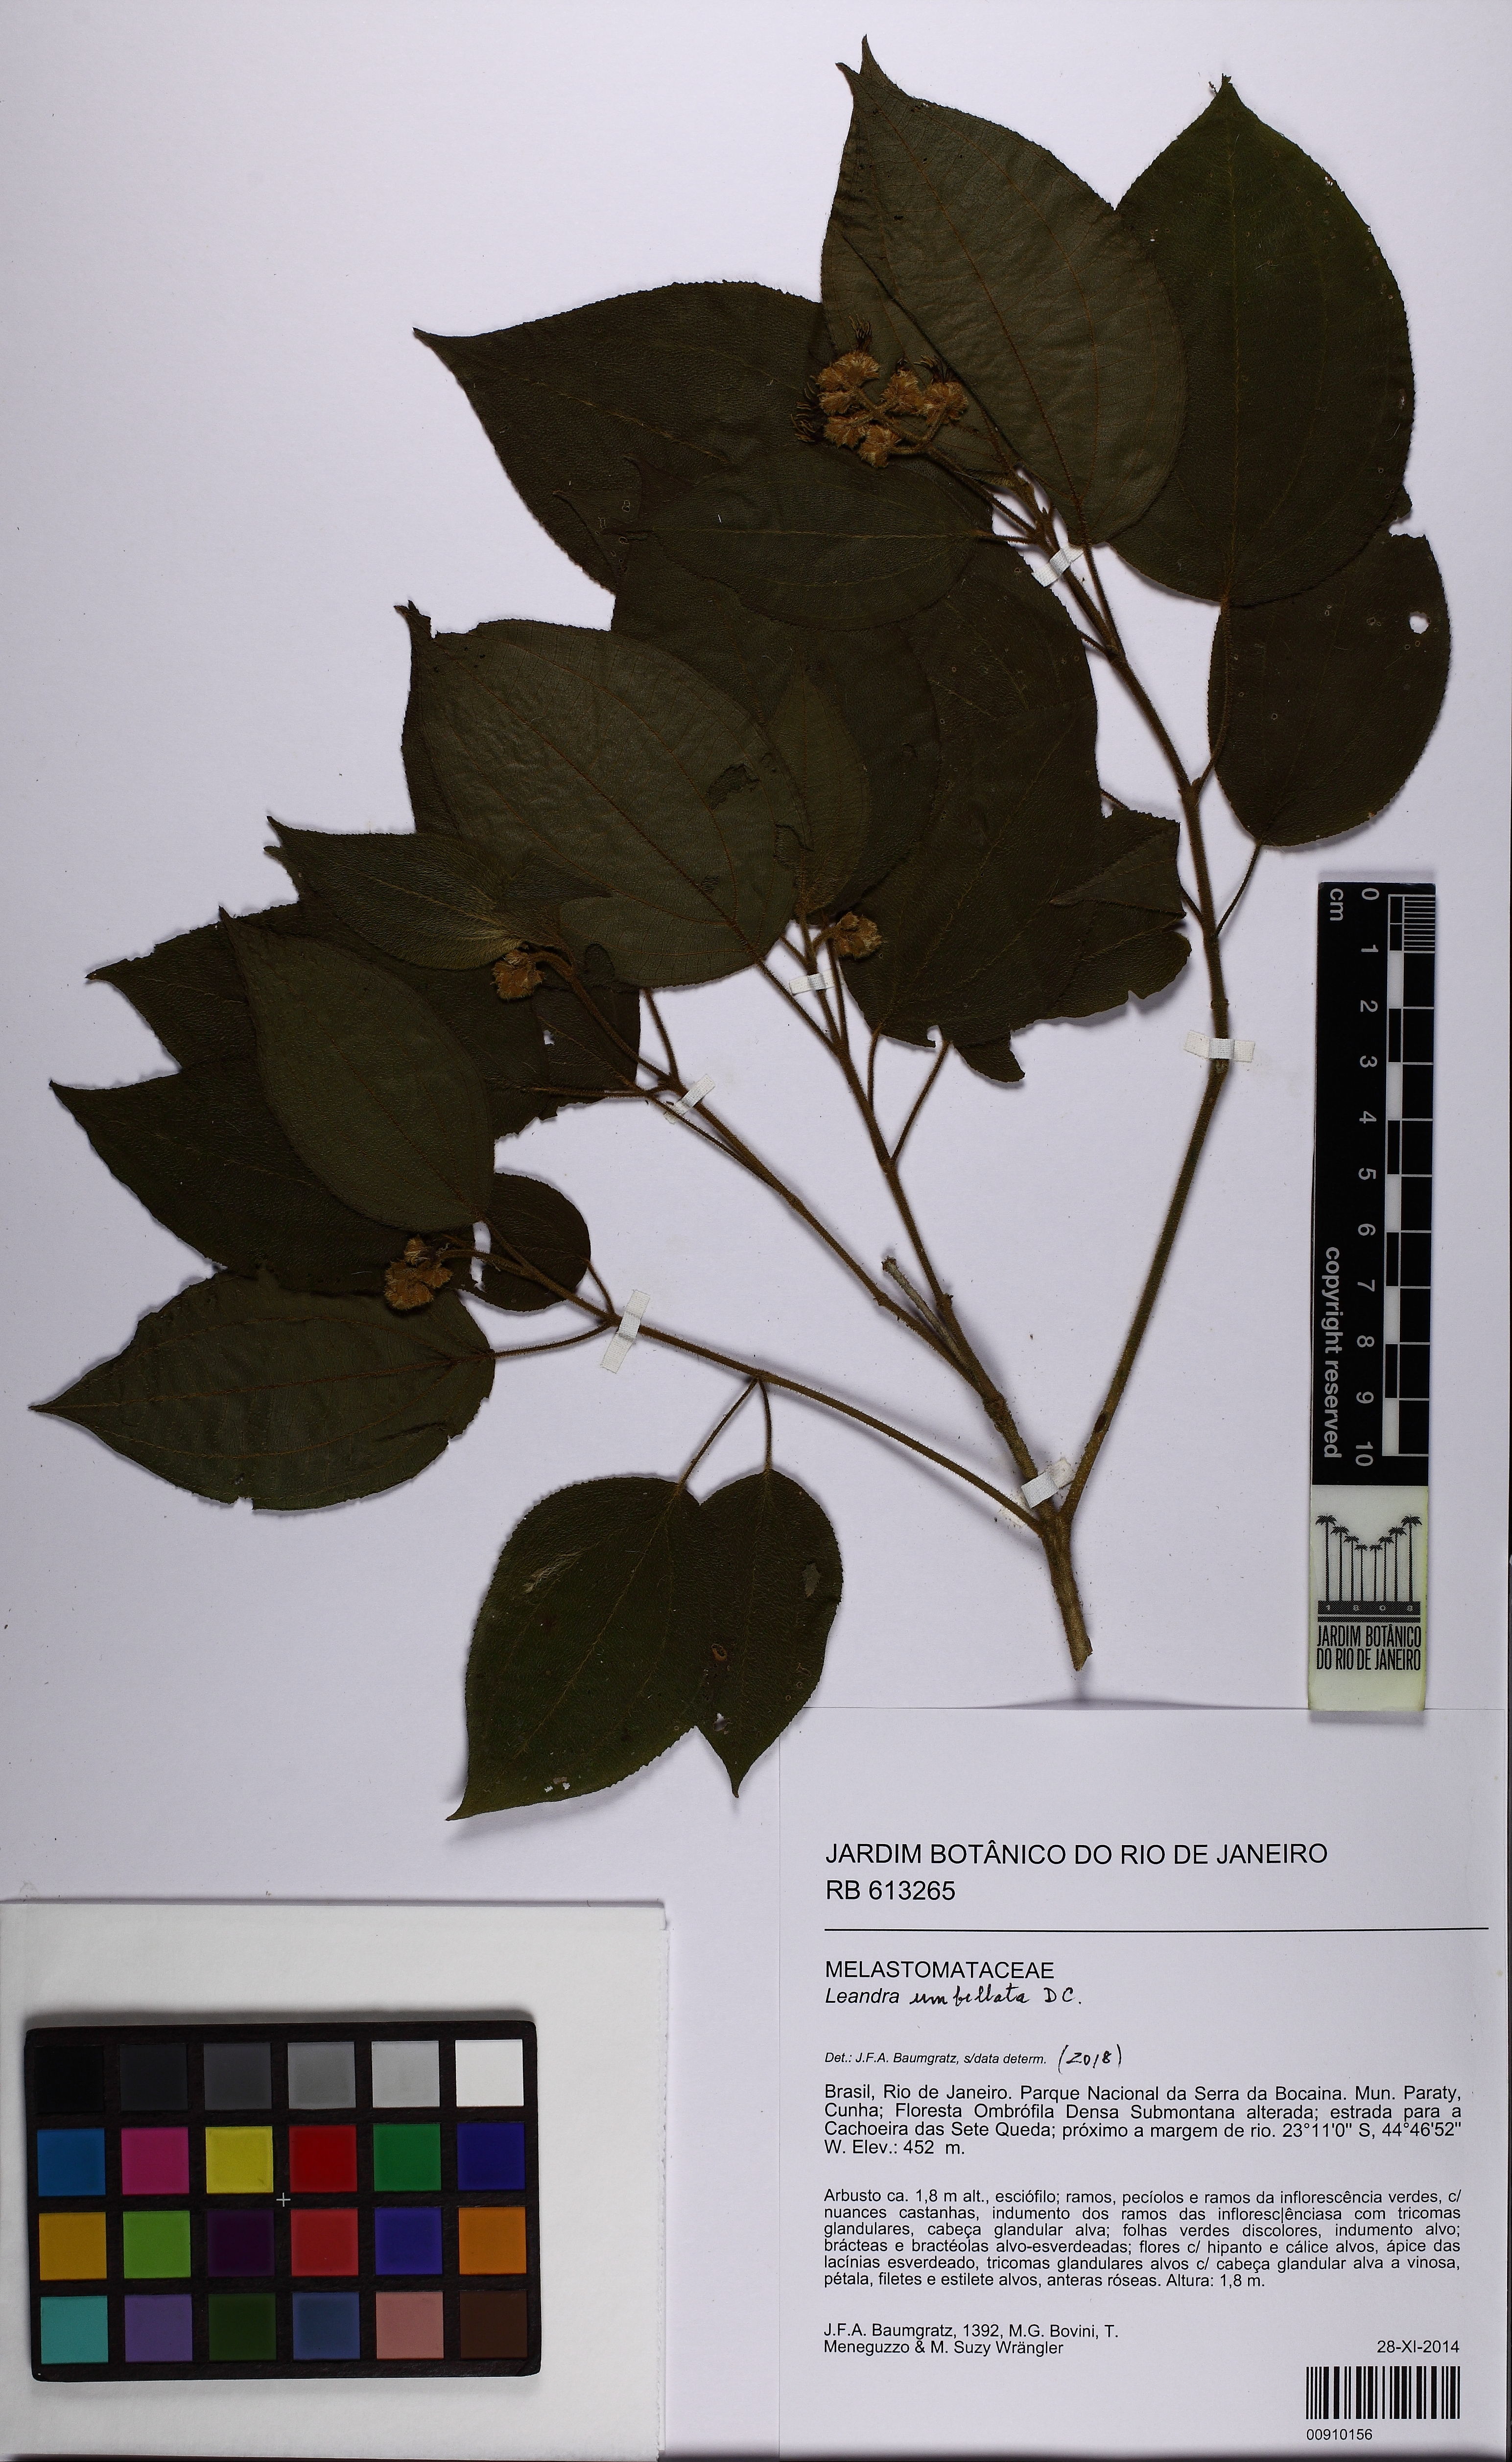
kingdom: Plantae
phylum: Tracheophyta
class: Magnoliopsida
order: Myrtales
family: Melastomataceae
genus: Miconia
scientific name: Miconia leaumbellata
